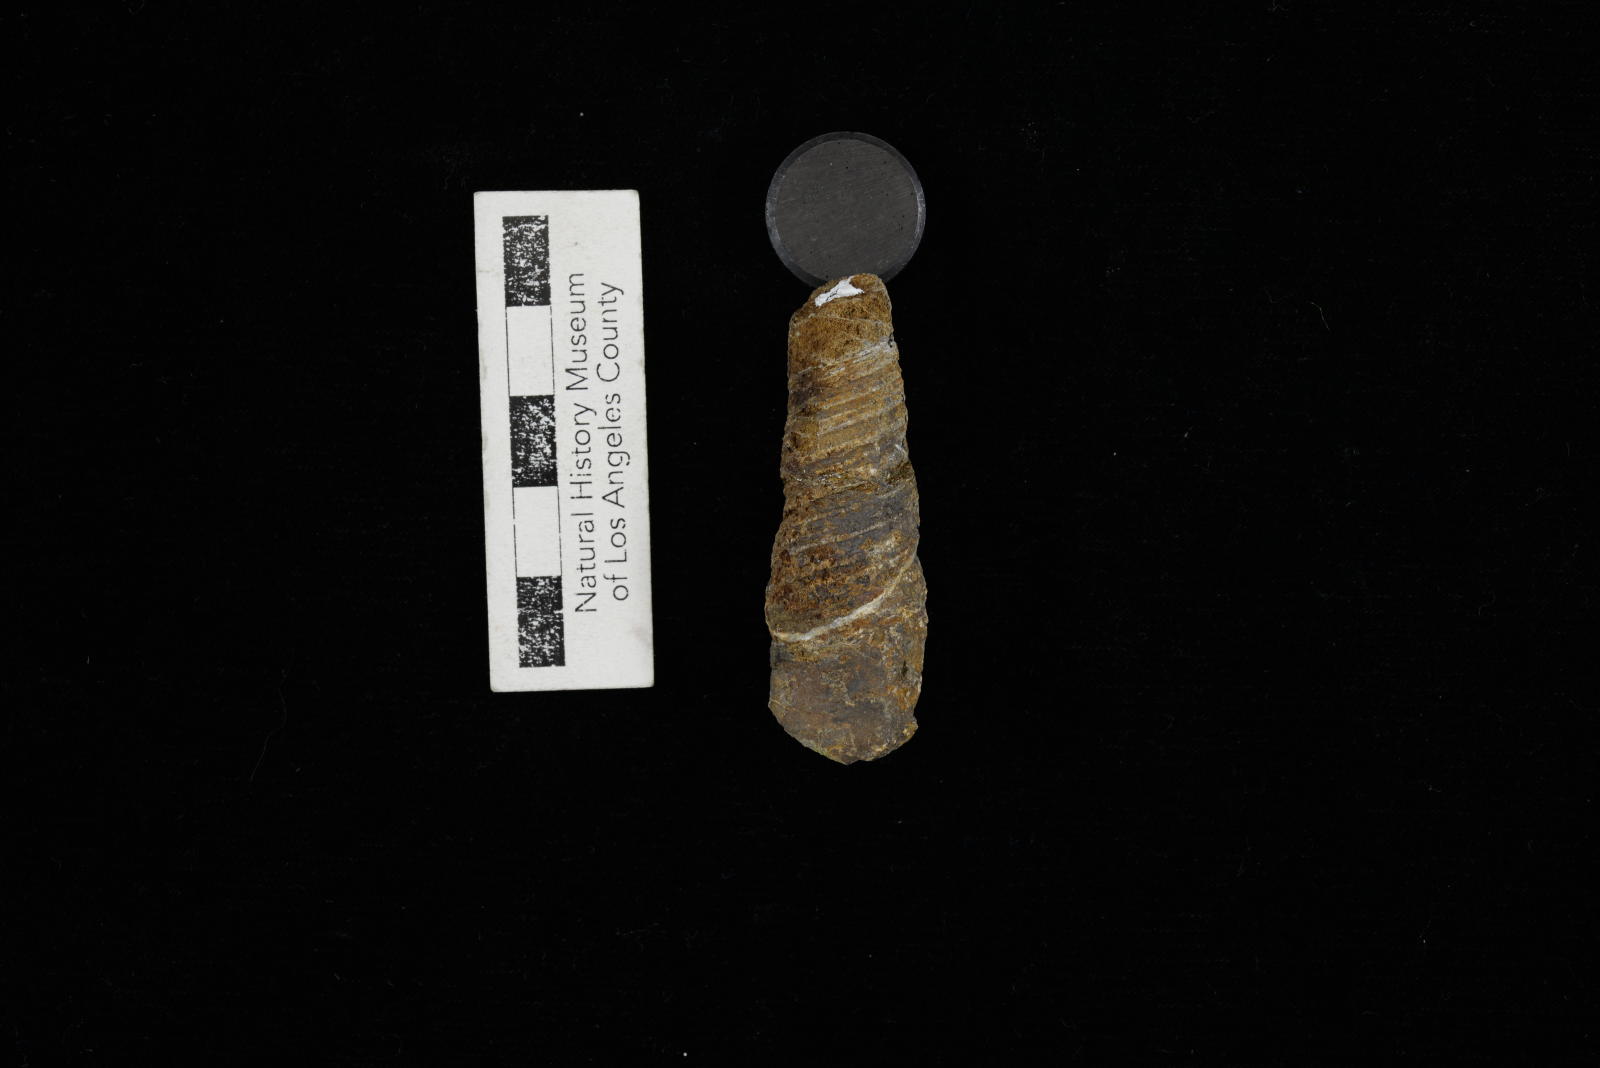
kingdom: Animalia
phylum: Mollusca
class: Gastropoda
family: Turritellidae
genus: Turritella
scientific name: Turritella
